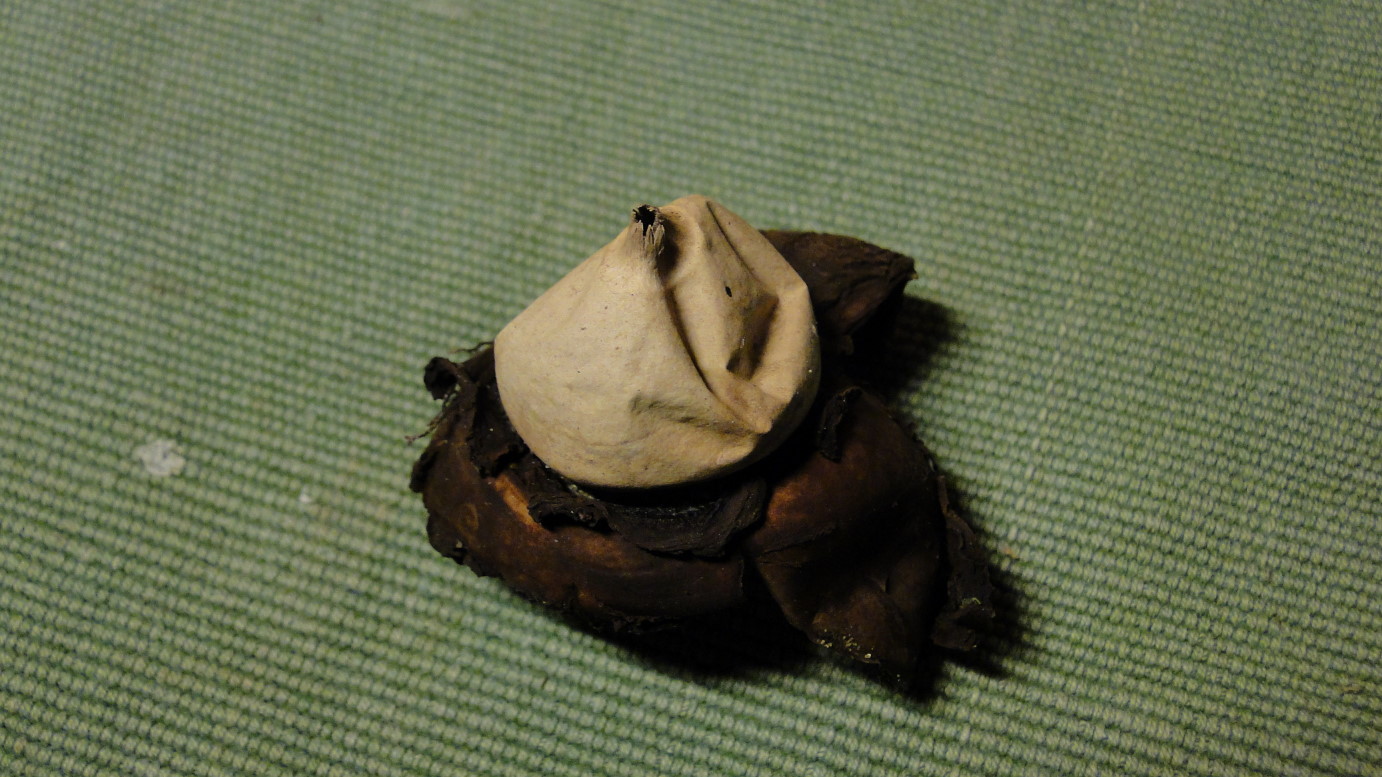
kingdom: Fungi
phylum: Basidiomycota
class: Agaricomycetes
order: Geastrales
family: Geastraceae
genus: Geastrum
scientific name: Geastrum michelianum
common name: kødet stjernebold
